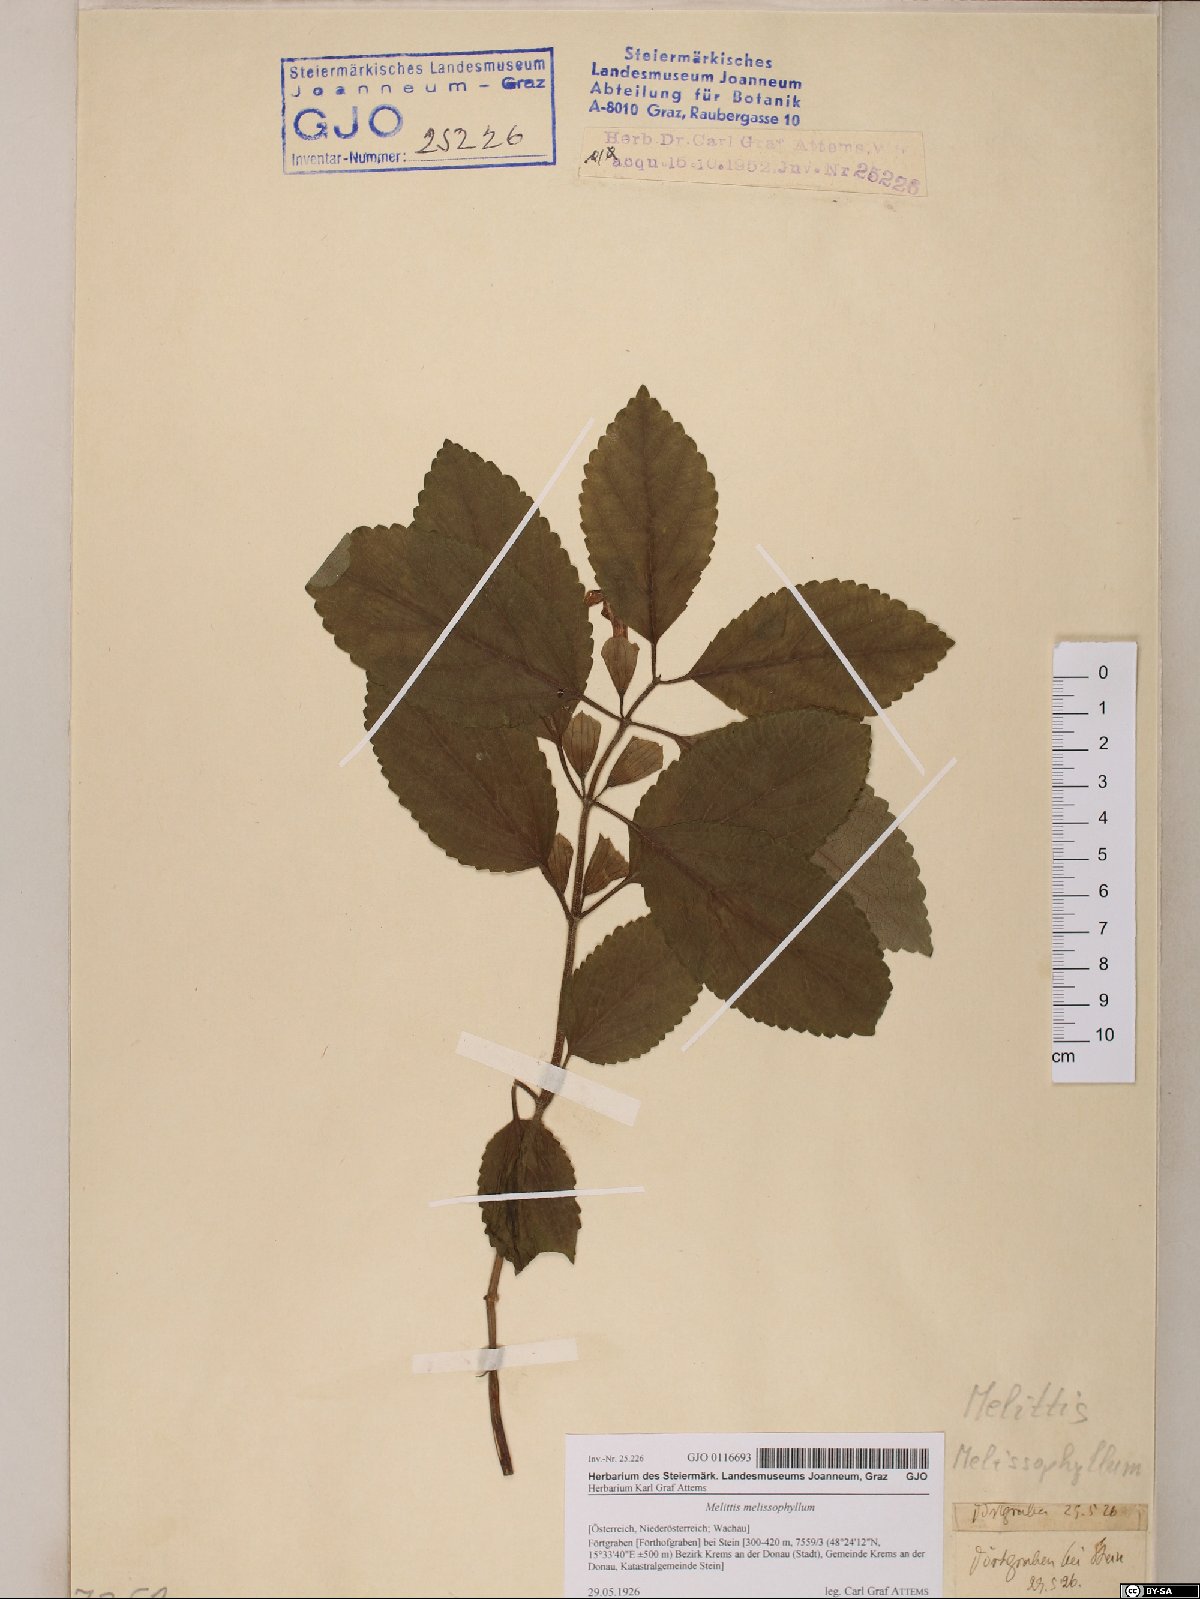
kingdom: Plantae
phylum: Tracheophyta
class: Magnoliopsida
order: Lamiales
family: Lamiaceae
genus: Melittis
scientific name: Melittis melissophyllum
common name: Bastard balm
